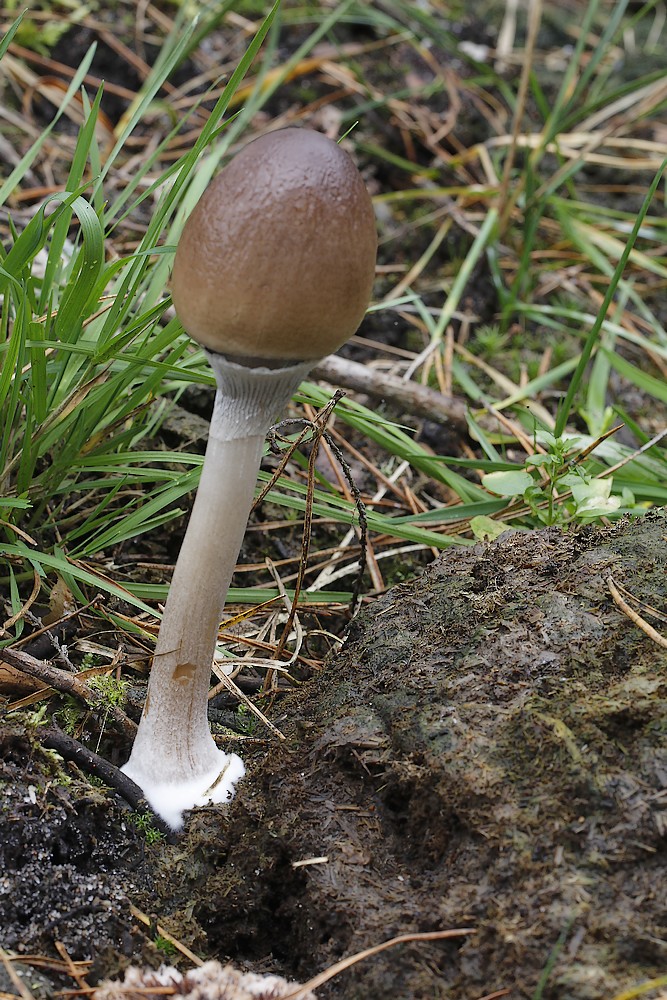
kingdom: Fungi
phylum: Basidiomycota
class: Agaricomycetes
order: Agaricales
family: Bolbitiaceae
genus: Panaeolus
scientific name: Panaeolus semiovatus
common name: ring-glanshat
